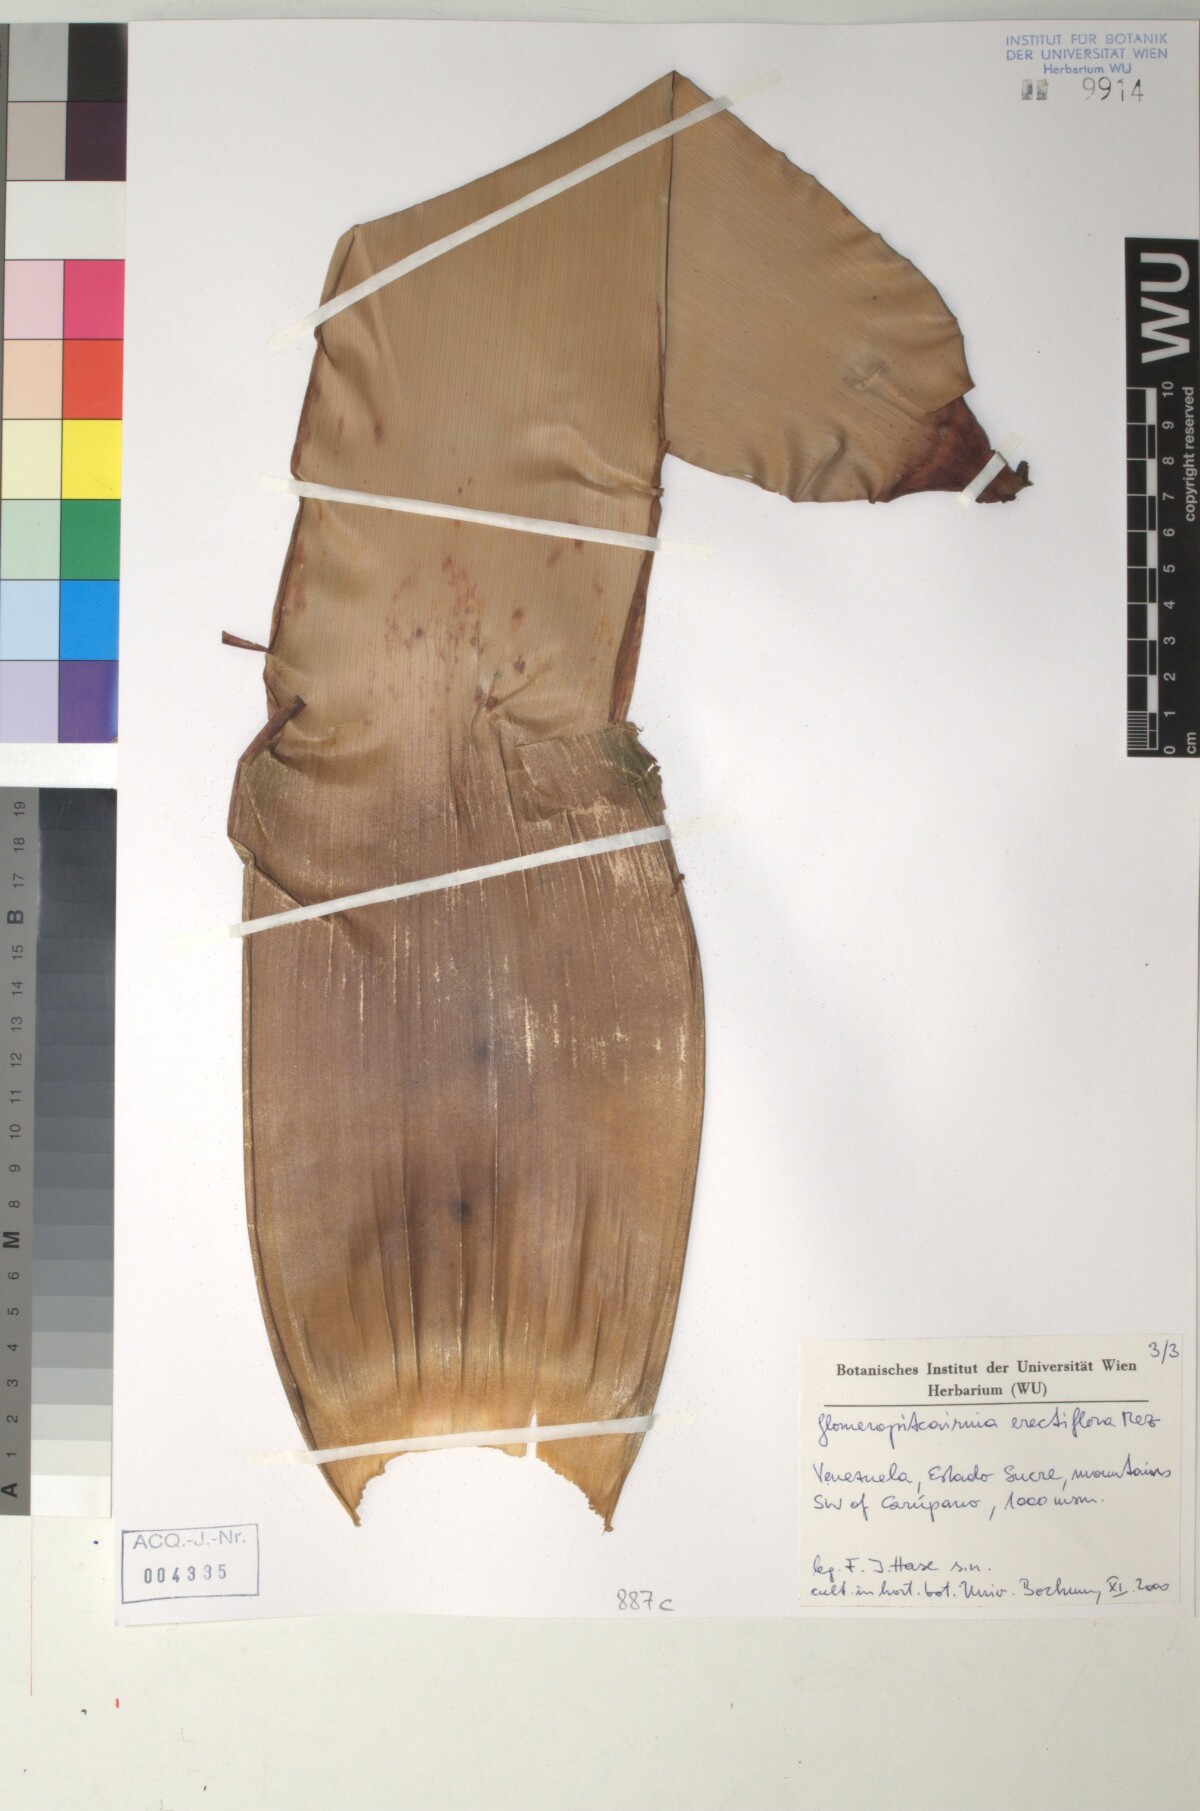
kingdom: Plantae
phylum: Tracheophyta
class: Liliopsida
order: Poales
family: Bromeliaceae
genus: Glomeropitcairnia
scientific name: Glomeropitcairnia erectiflora
